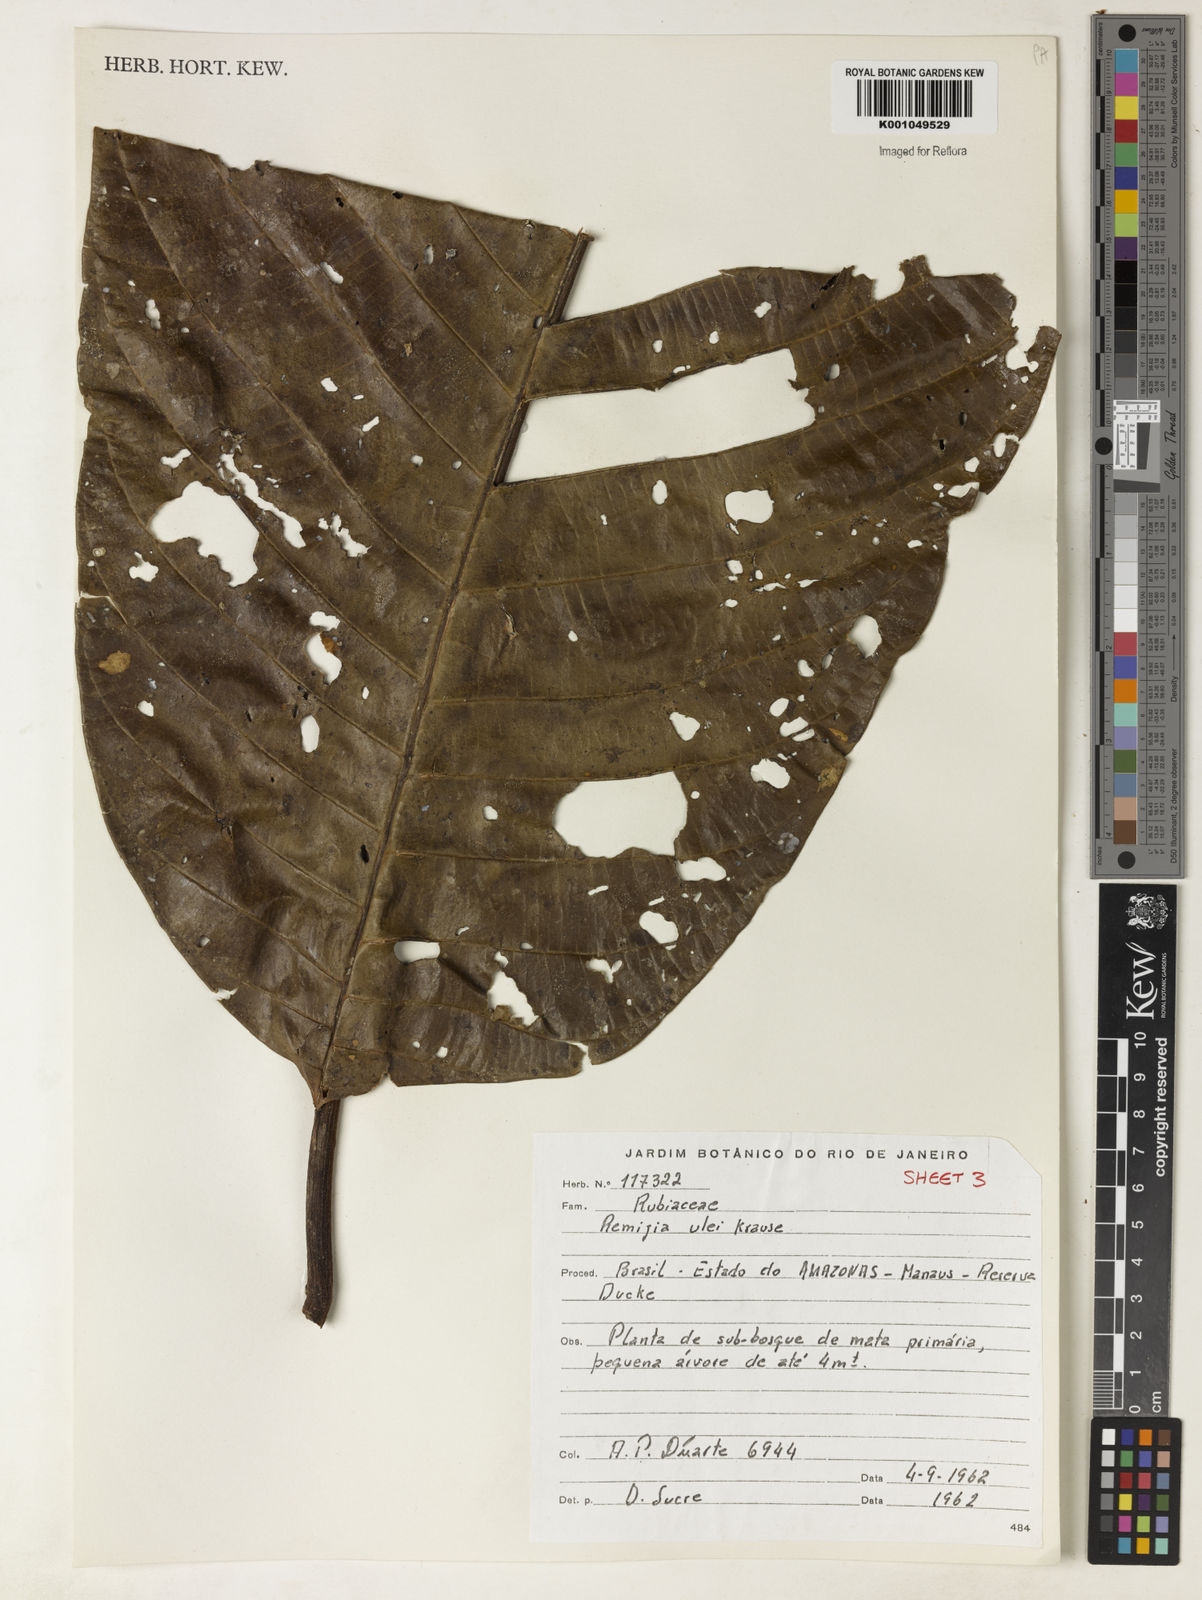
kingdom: Plantae
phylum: Tracheophyta
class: Magnoliopsida
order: Gentianales
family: Rubiaceae
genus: Remijia
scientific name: Remijia ulei
